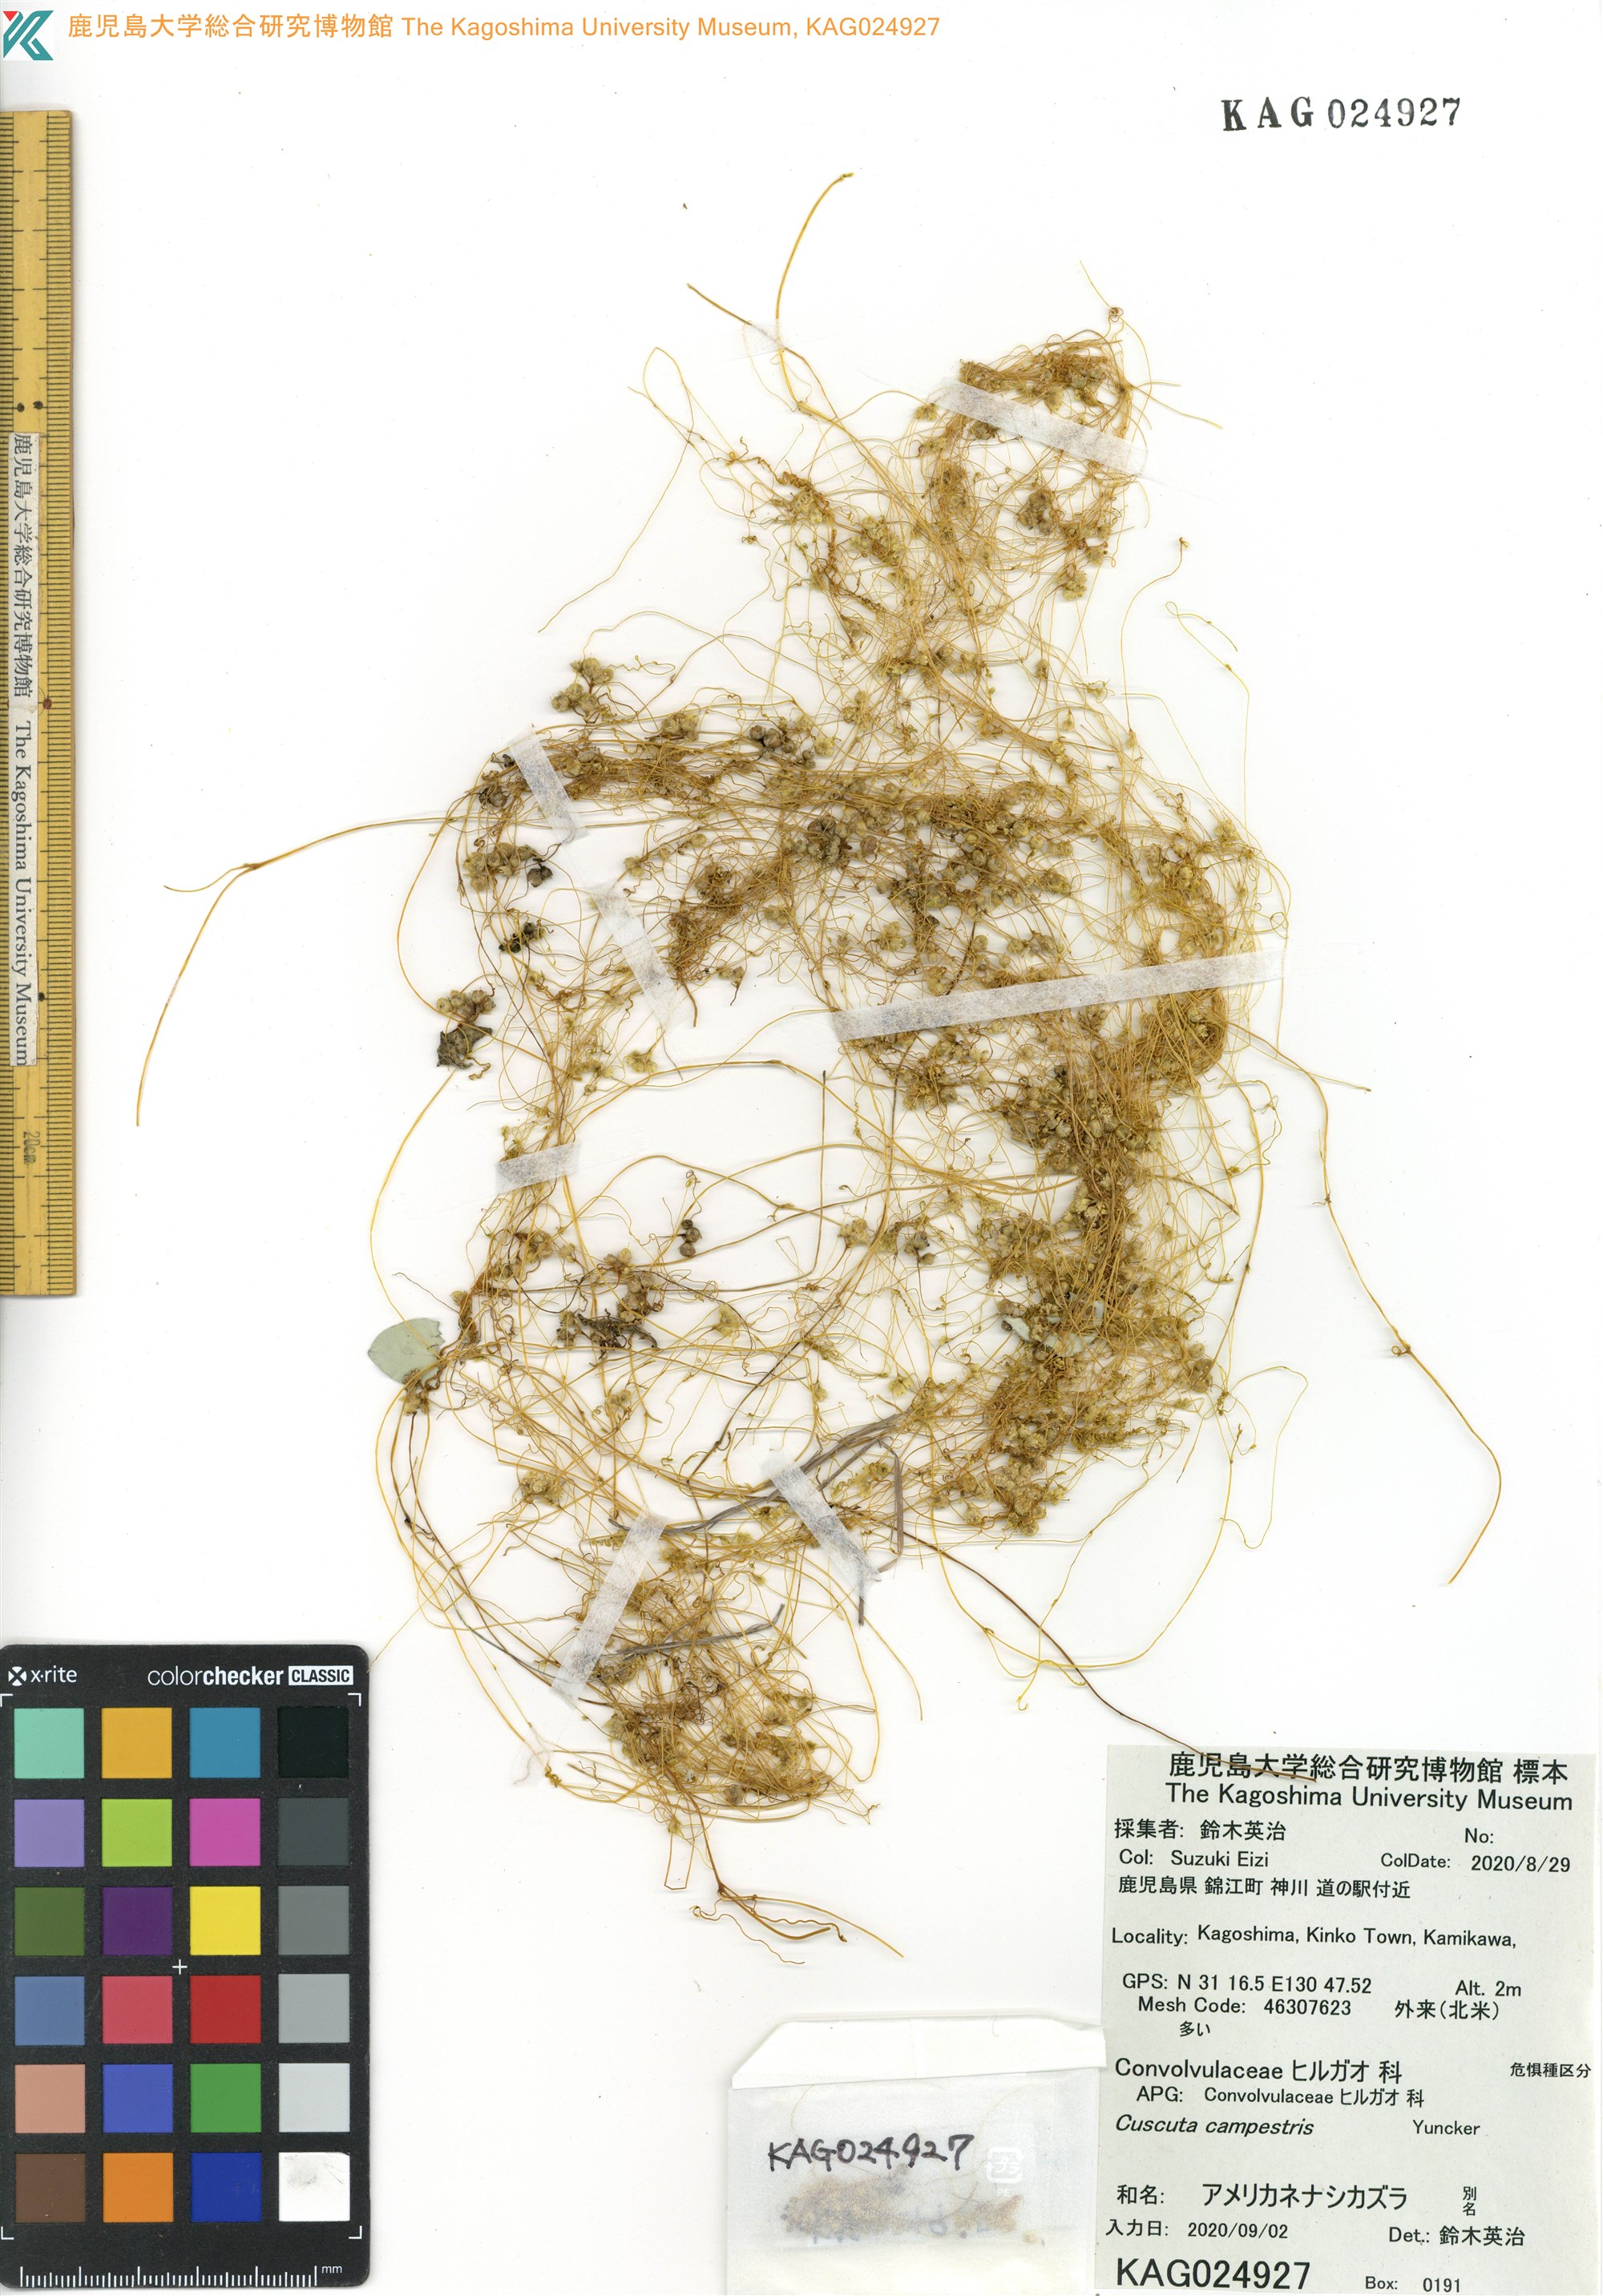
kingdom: Plantae
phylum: Tracheophyta
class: Magnoliopsida
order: Solanales
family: Convolvulaceae
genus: Cuscuta
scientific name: Cuscuta campestris
